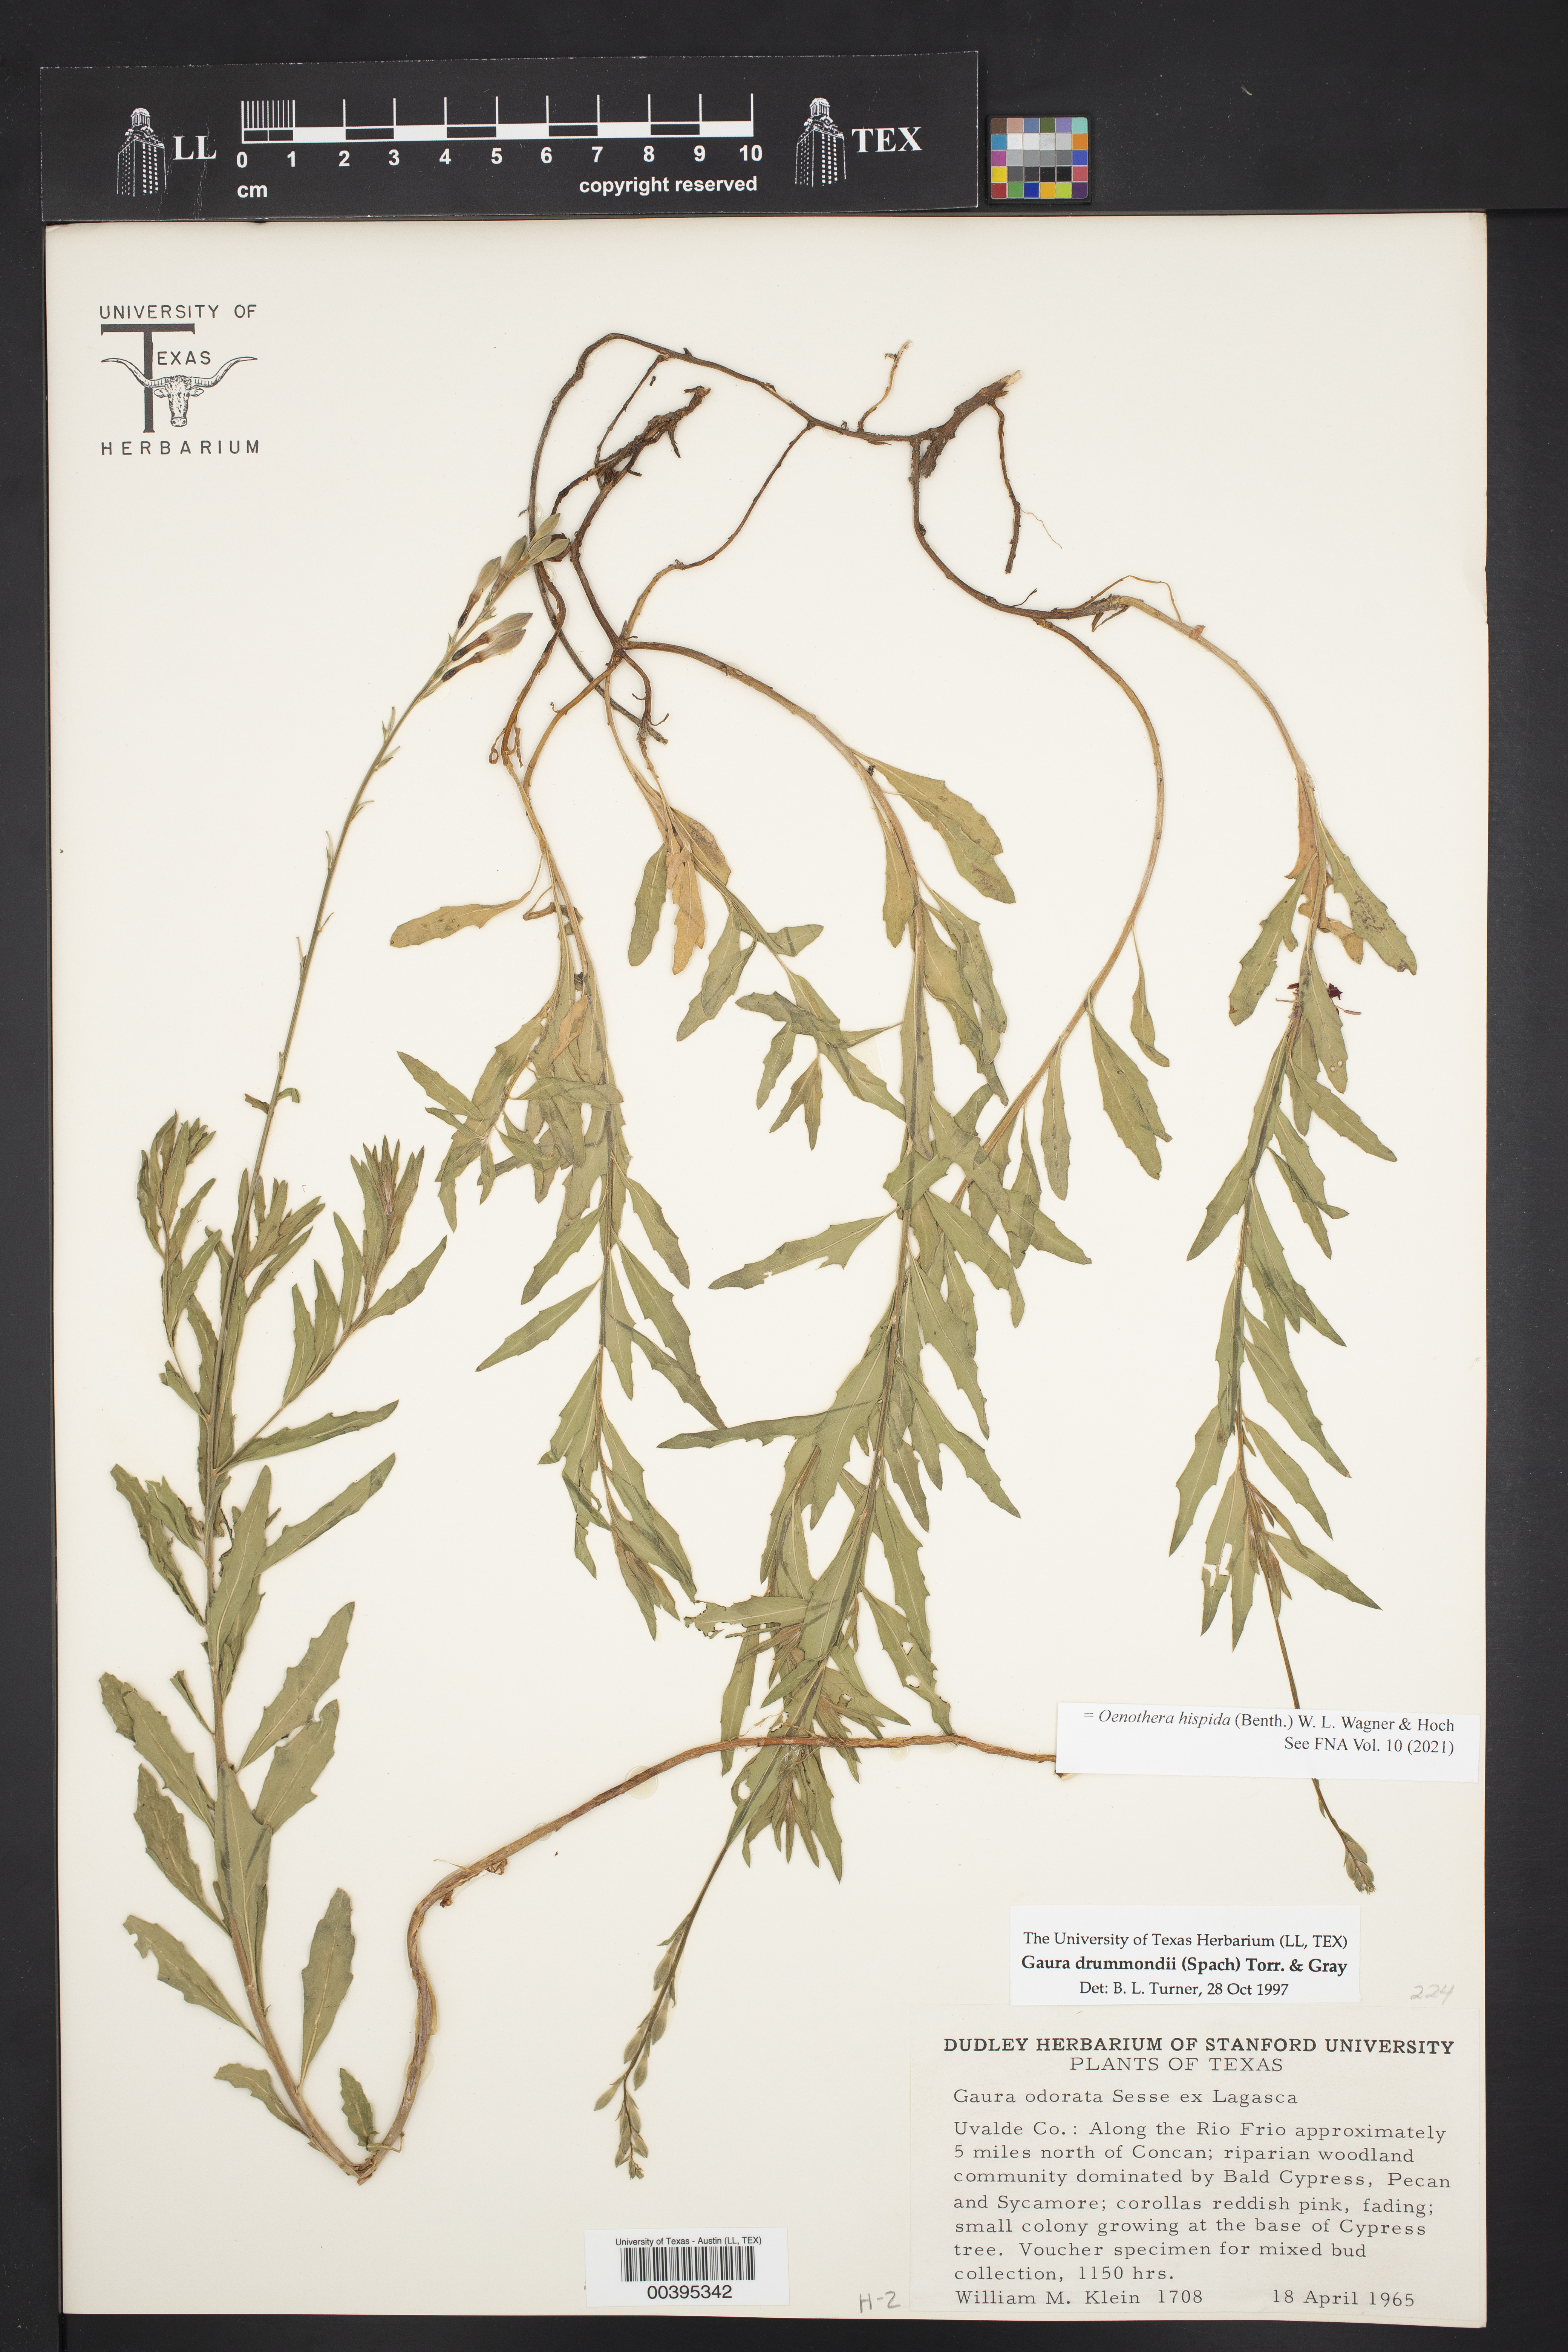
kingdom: Plantae
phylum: Tracheophyta
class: Magnoliopsida
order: Myrtales
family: Onagraceae
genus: Oenothera
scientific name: Oenothera hispida
